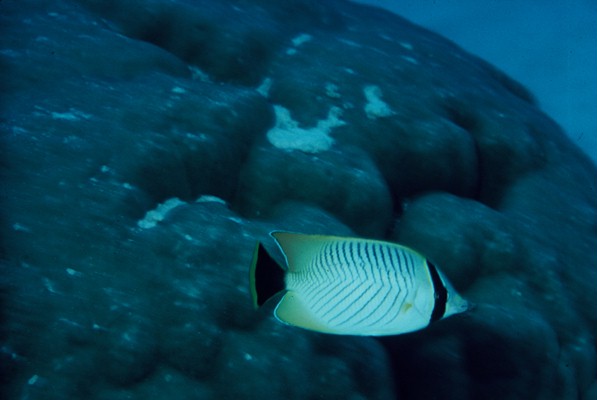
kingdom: Animalia
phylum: Chordata
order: Perciformes
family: Chaetodontidae
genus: Chaetodon
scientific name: Chaetodon trifascialis
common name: Chevroned butterflyfish
